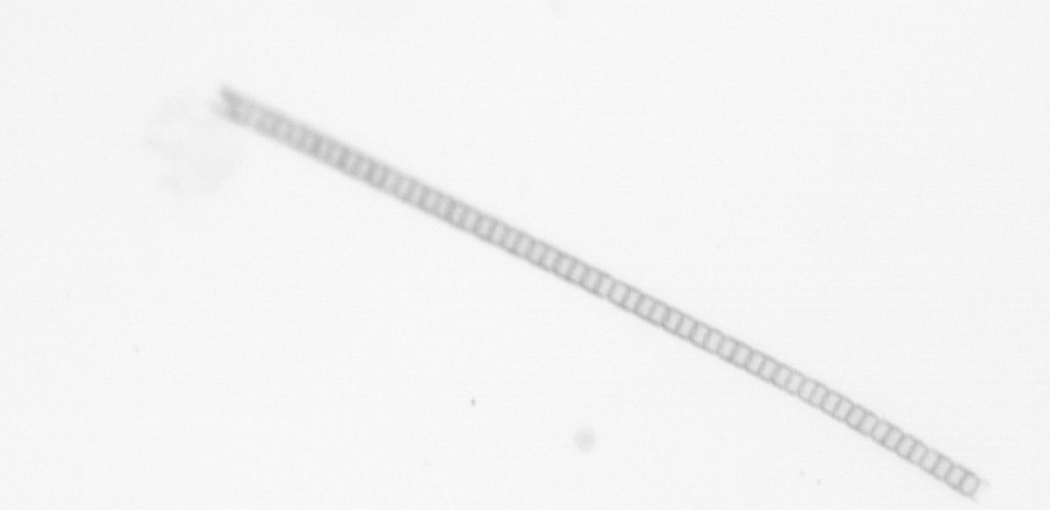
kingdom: Chromista
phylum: Ochrophyta
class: Bacillariophyceae
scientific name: Bacillariophyceae
